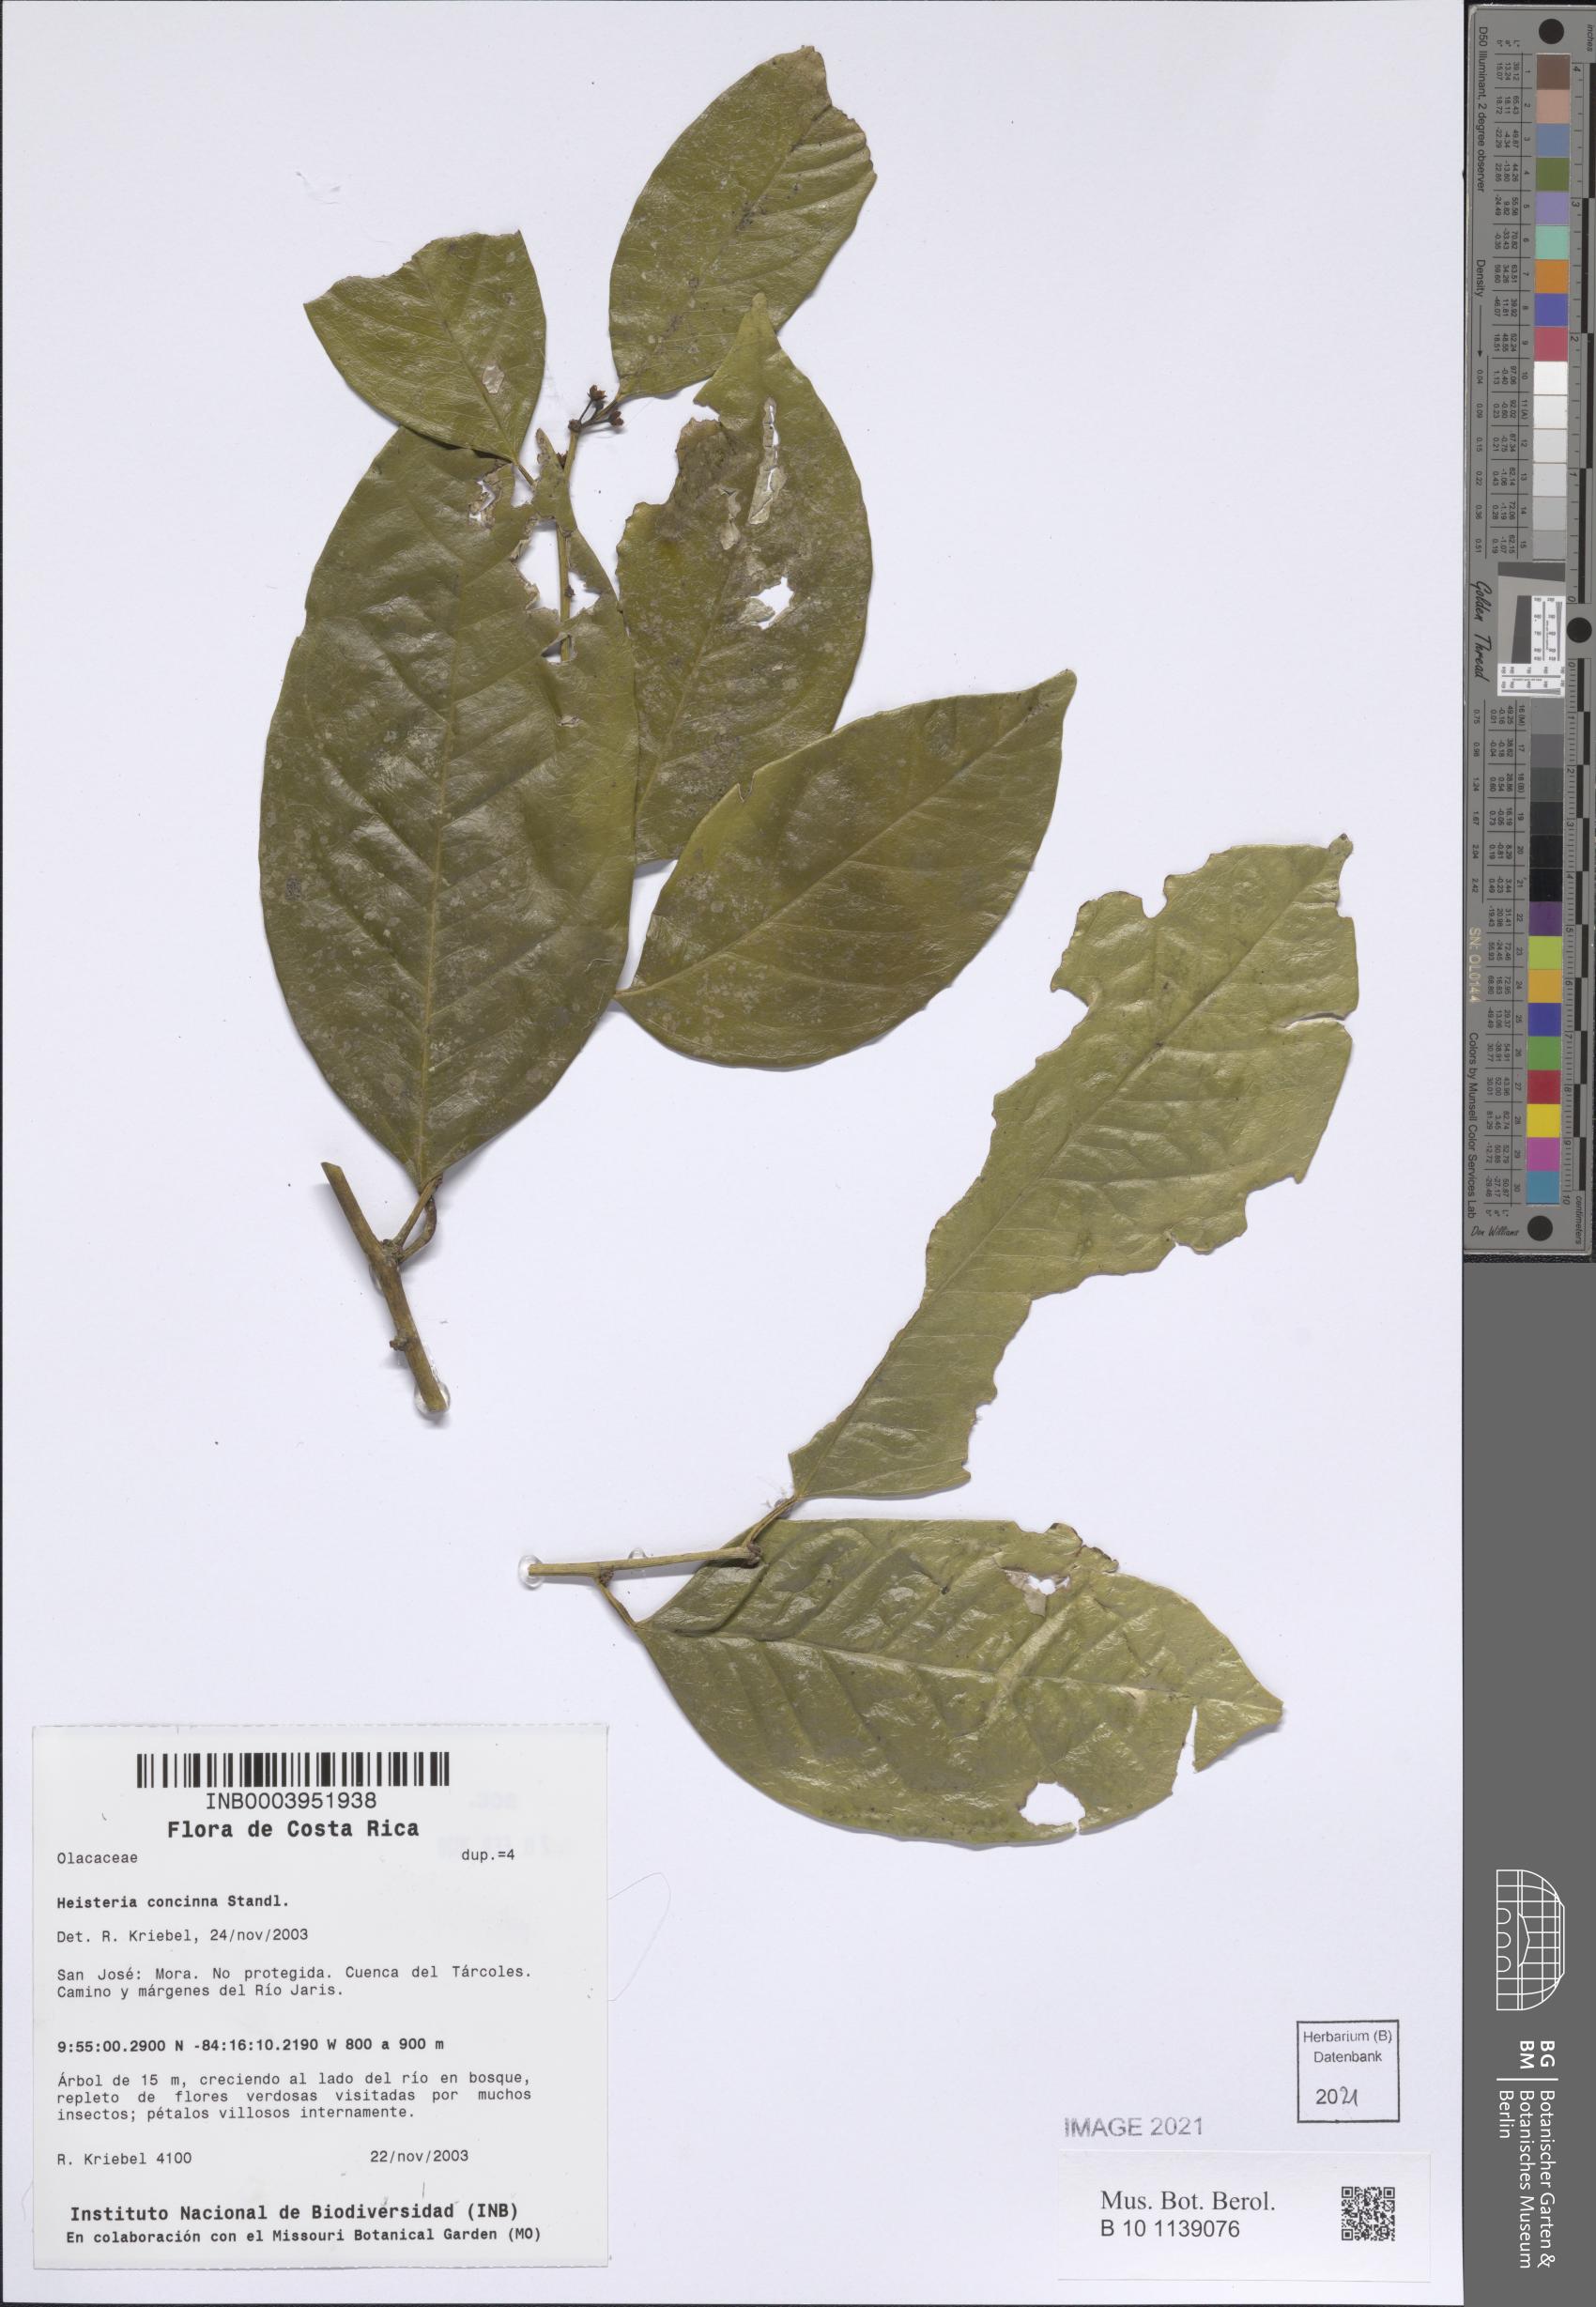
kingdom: Plantae
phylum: Tracheophyta
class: Magnoliopsida
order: Santalales
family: Erythropalaceae
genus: Heisteria
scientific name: Heisteria concinna
